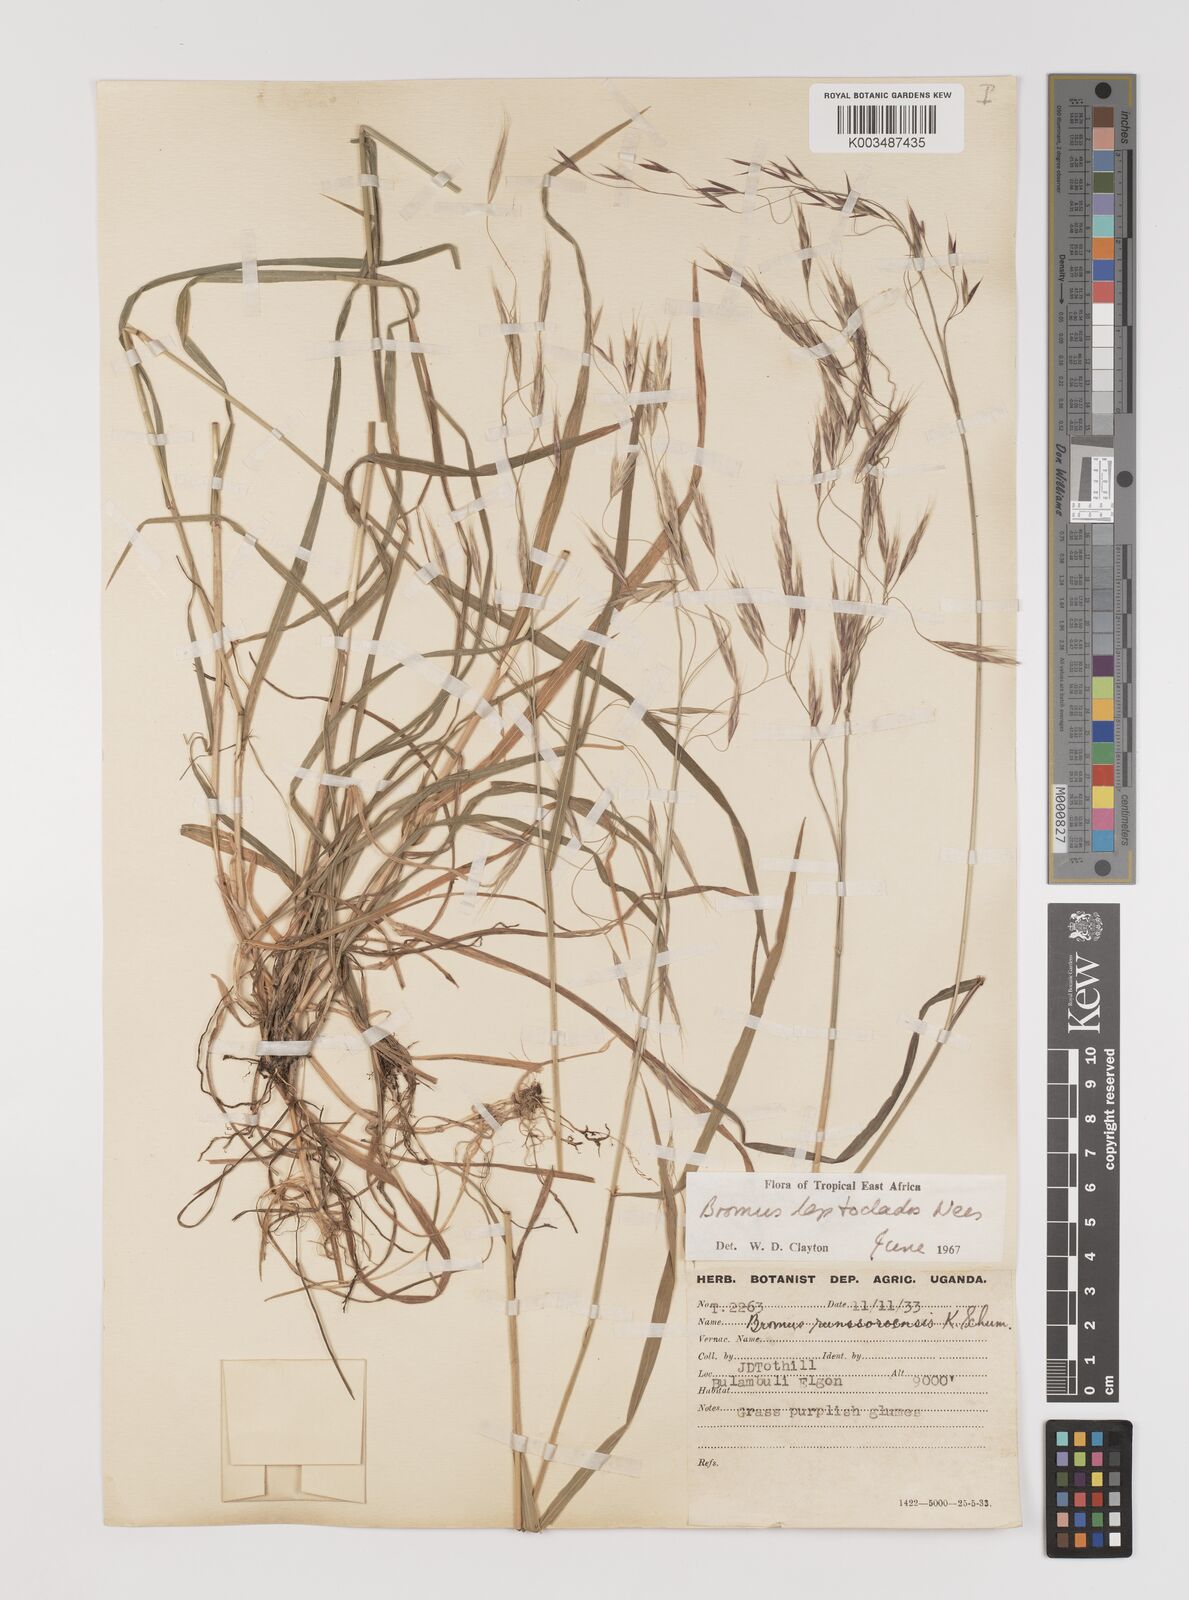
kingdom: Plantae
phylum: Tracheophyta
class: Liliopsida
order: Poales
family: Poaceae
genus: Bromus
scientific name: Bromus leptoclados
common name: Mountain bromegrass
